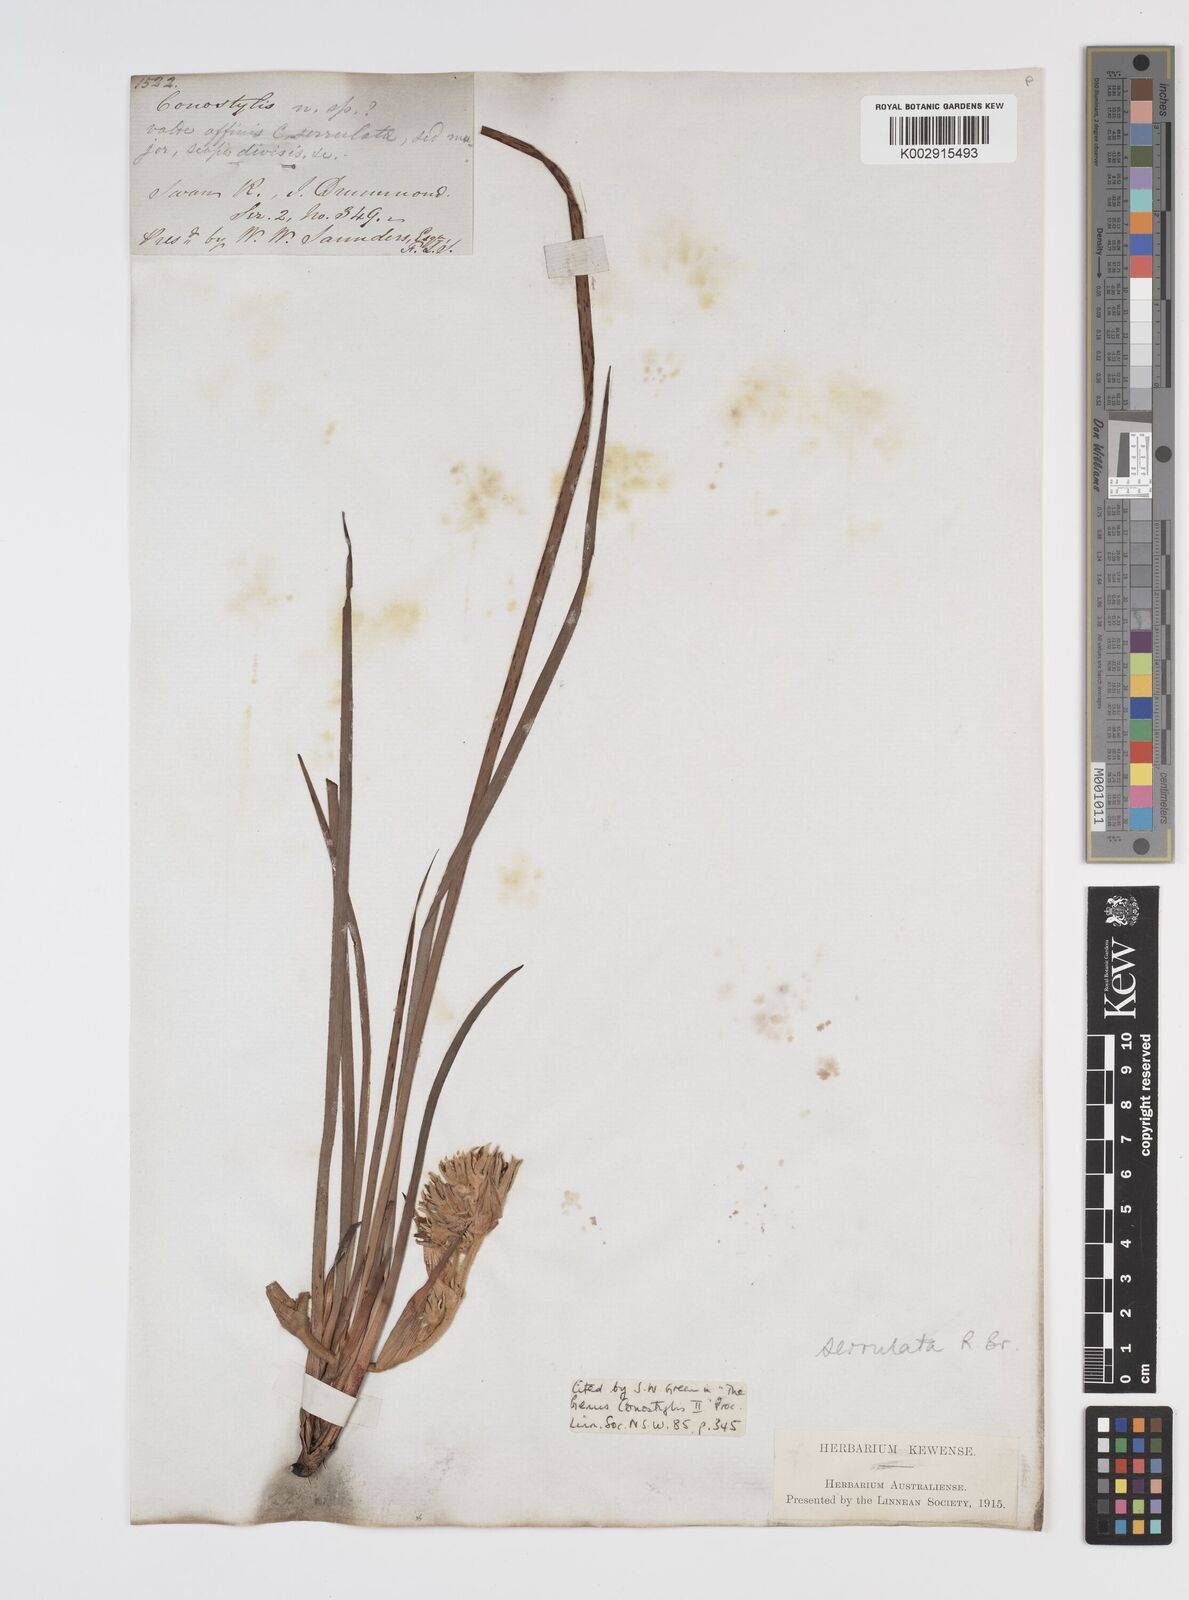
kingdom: Plantae
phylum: Tracheophyta
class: Liliopsida
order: Commelinales
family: Haemodoraceae
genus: Conostylis
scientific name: Conostylis serrulata
